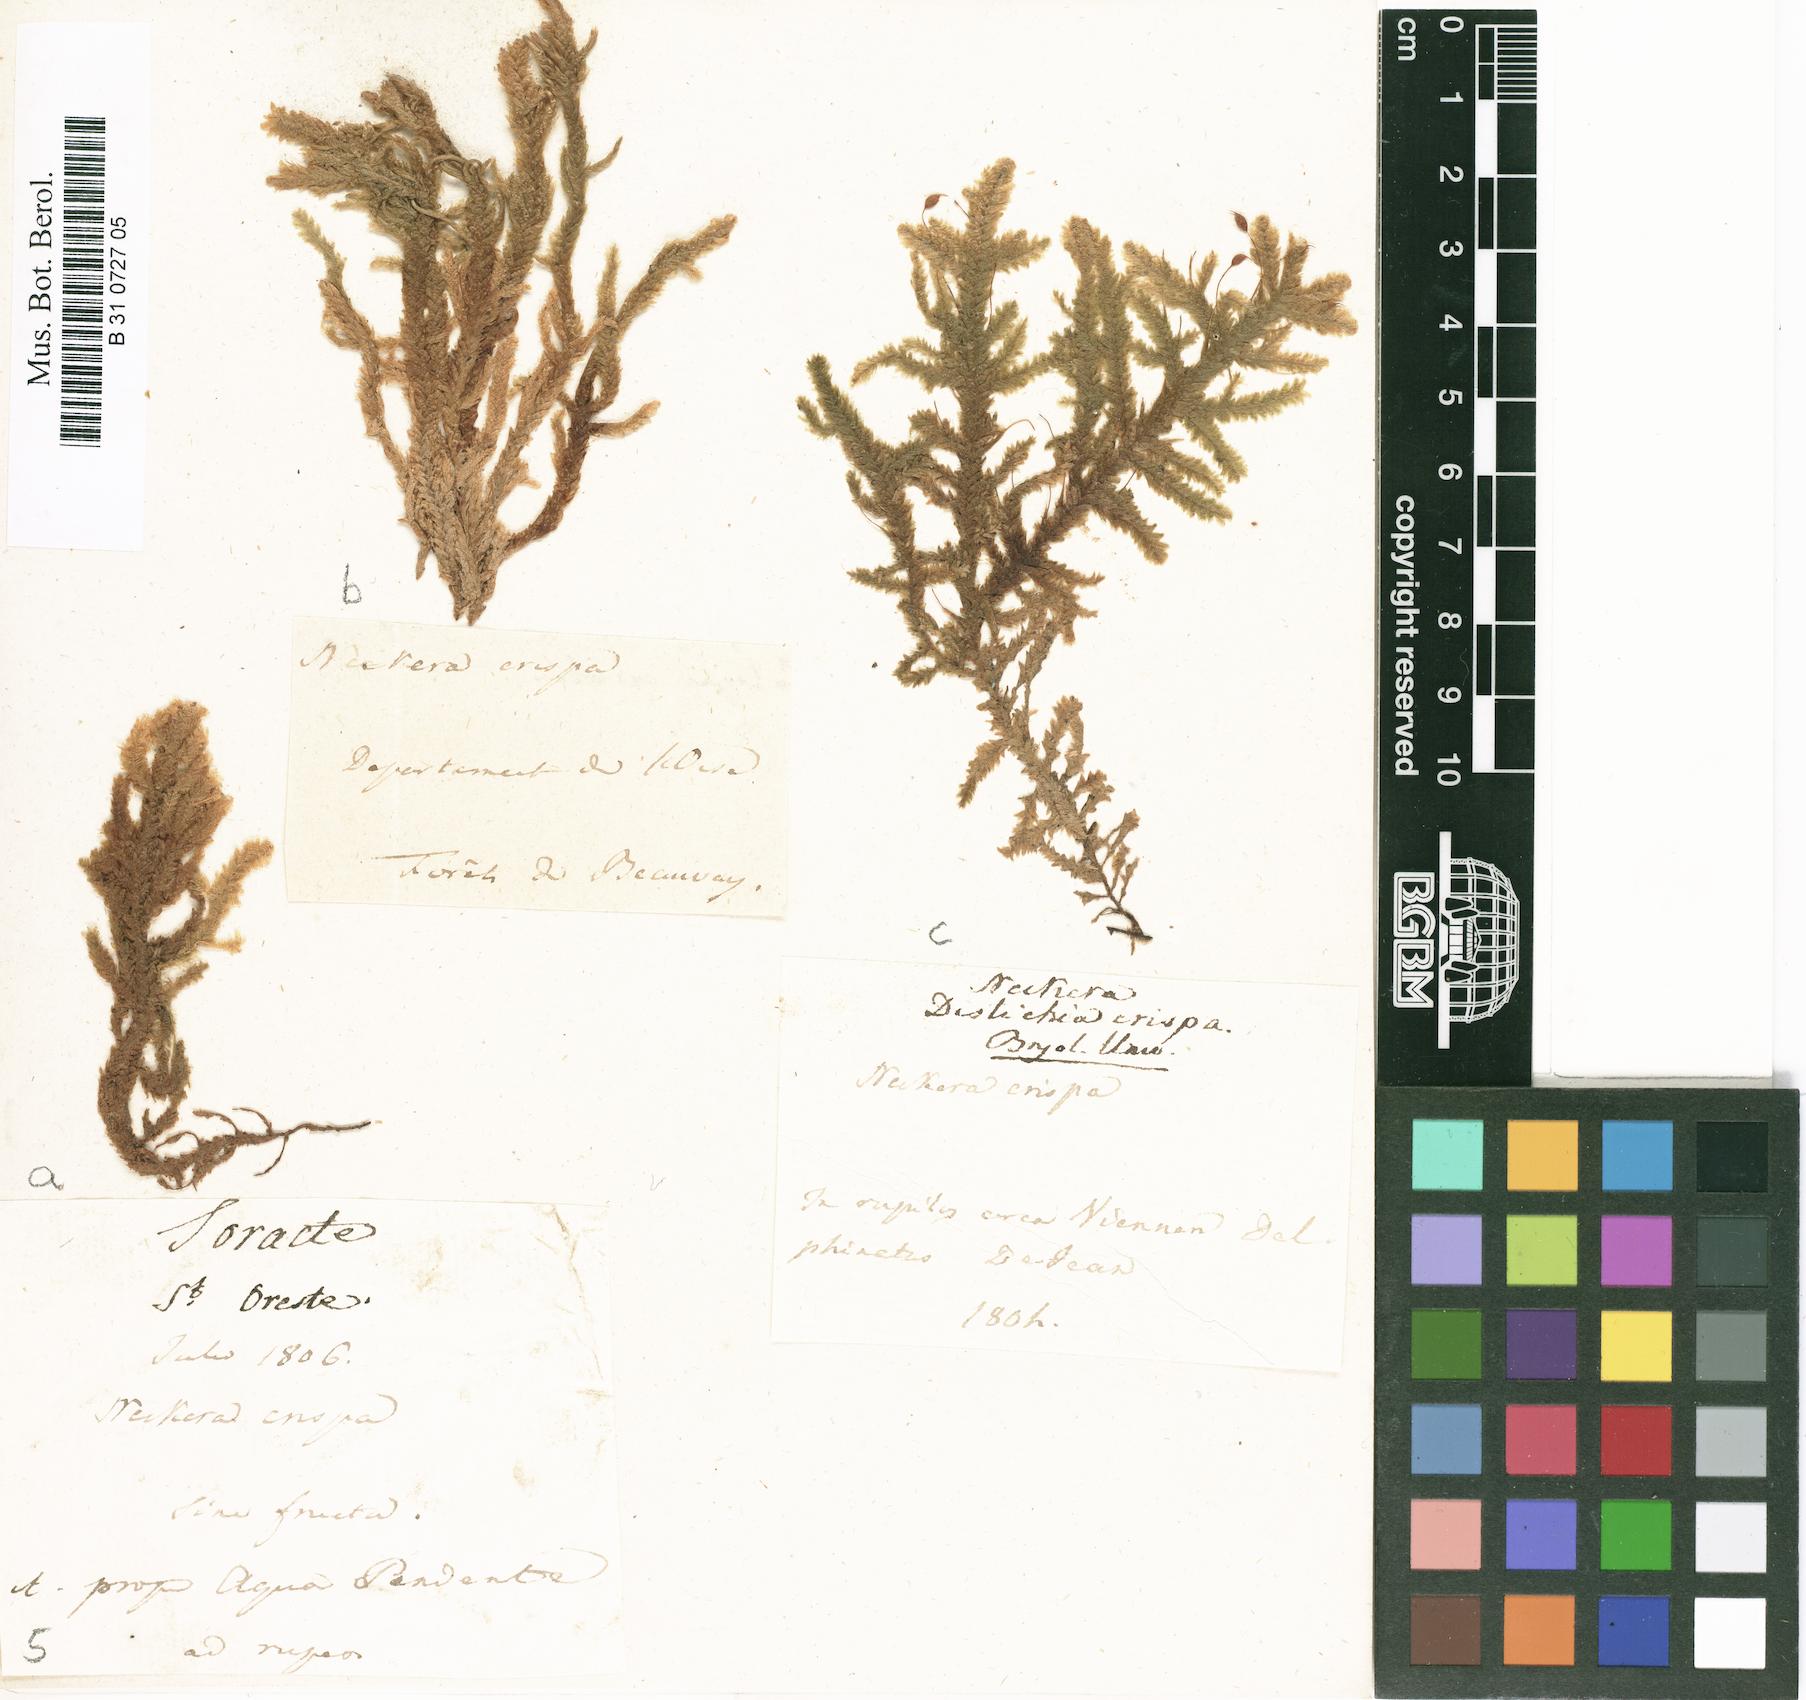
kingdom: Plantae
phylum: Bryophyta
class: Bryopsida
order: Hypnales
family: Neckeraceae
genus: Exsertotheca
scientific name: Exsertotheca crispa
